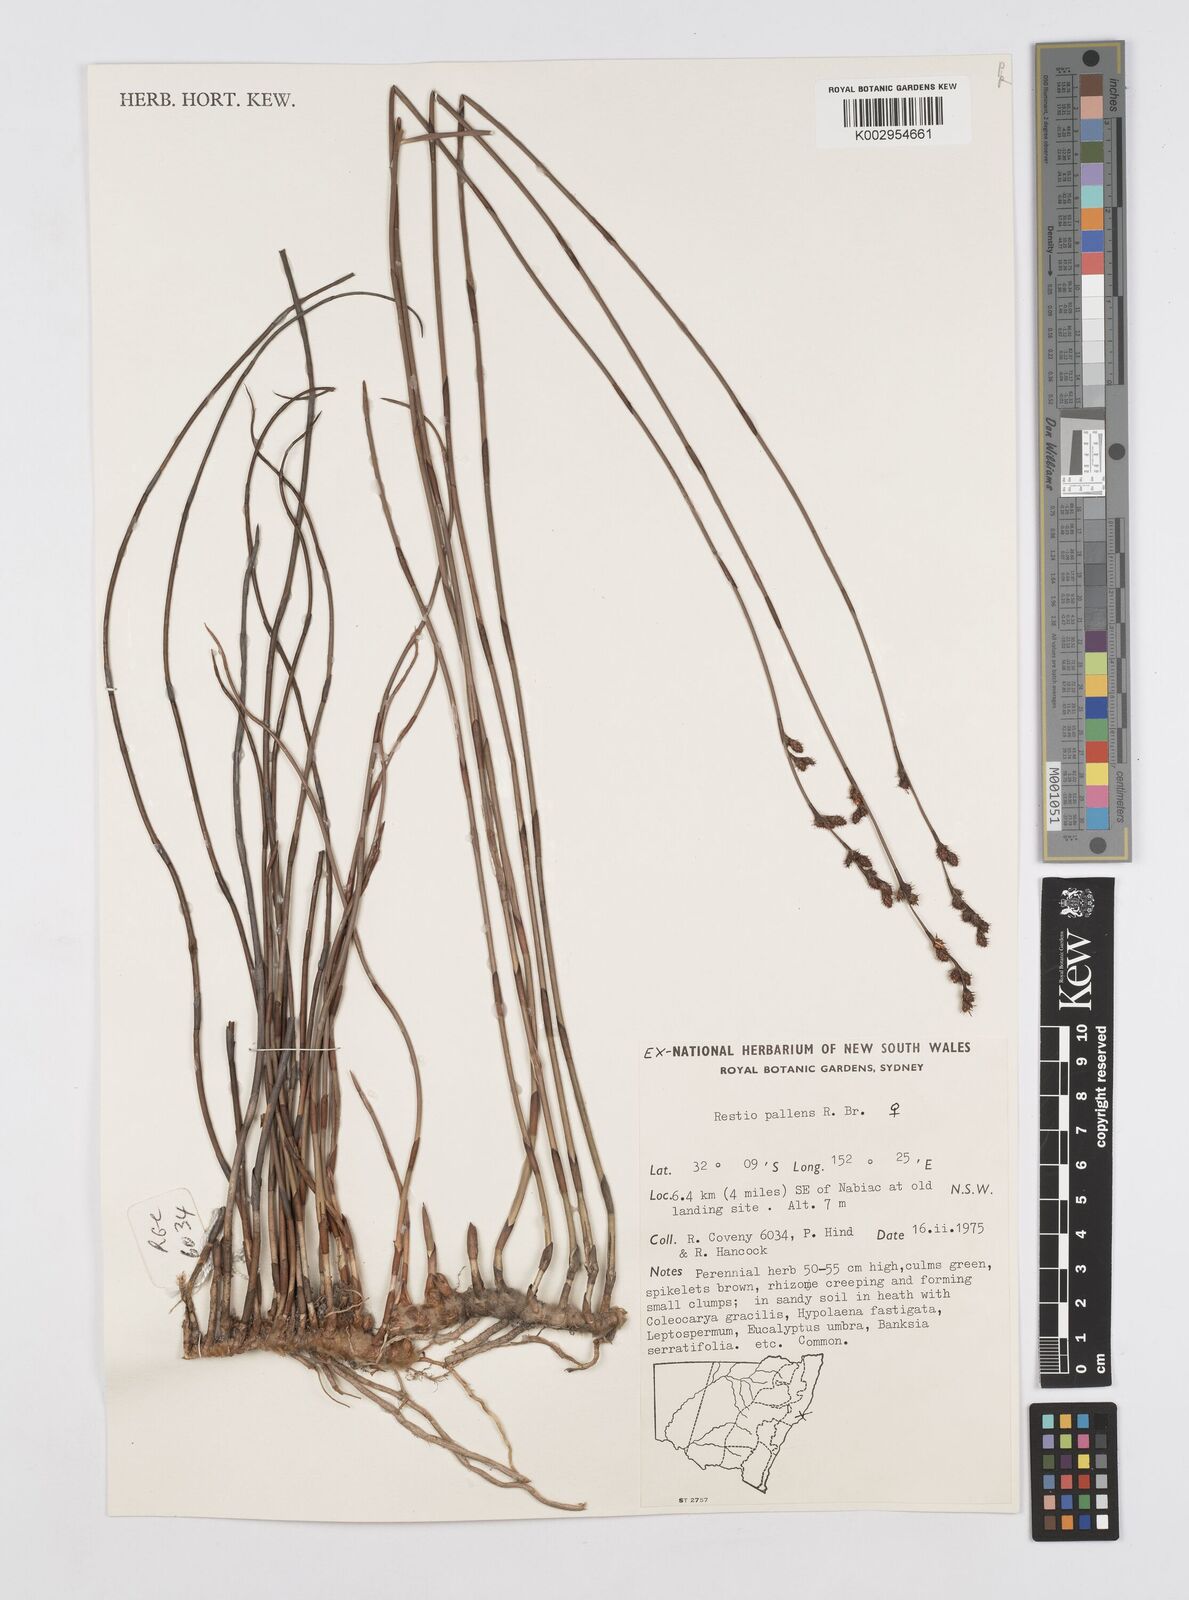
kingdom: Plantae
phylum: Tracheophyta
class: Liliopsida
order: Poales
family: Restionaceae
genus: Baloskion
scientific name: Baloskion pallens
